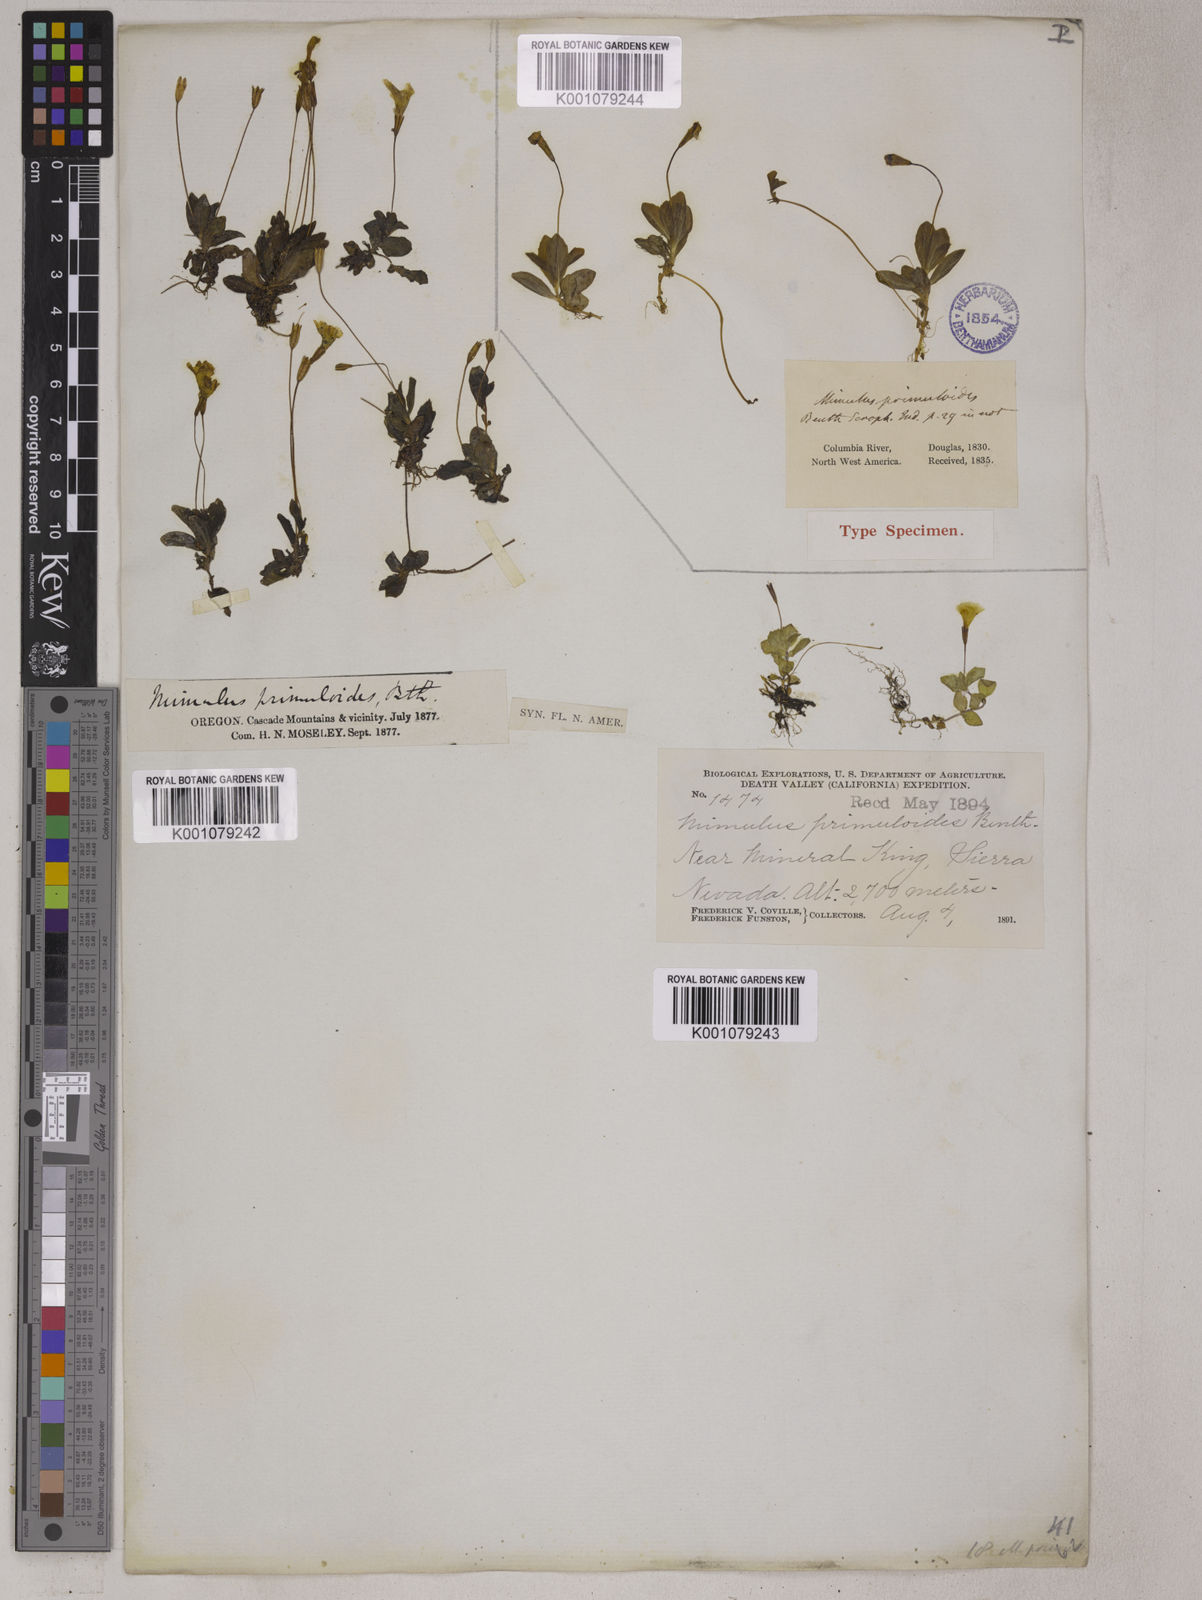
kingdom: Plantae
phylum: Tracheophyta
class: Magnoliopsida
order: Lamiales
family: Phrymaceae
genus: Erythranthe
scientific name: Erythranthe primuloides
